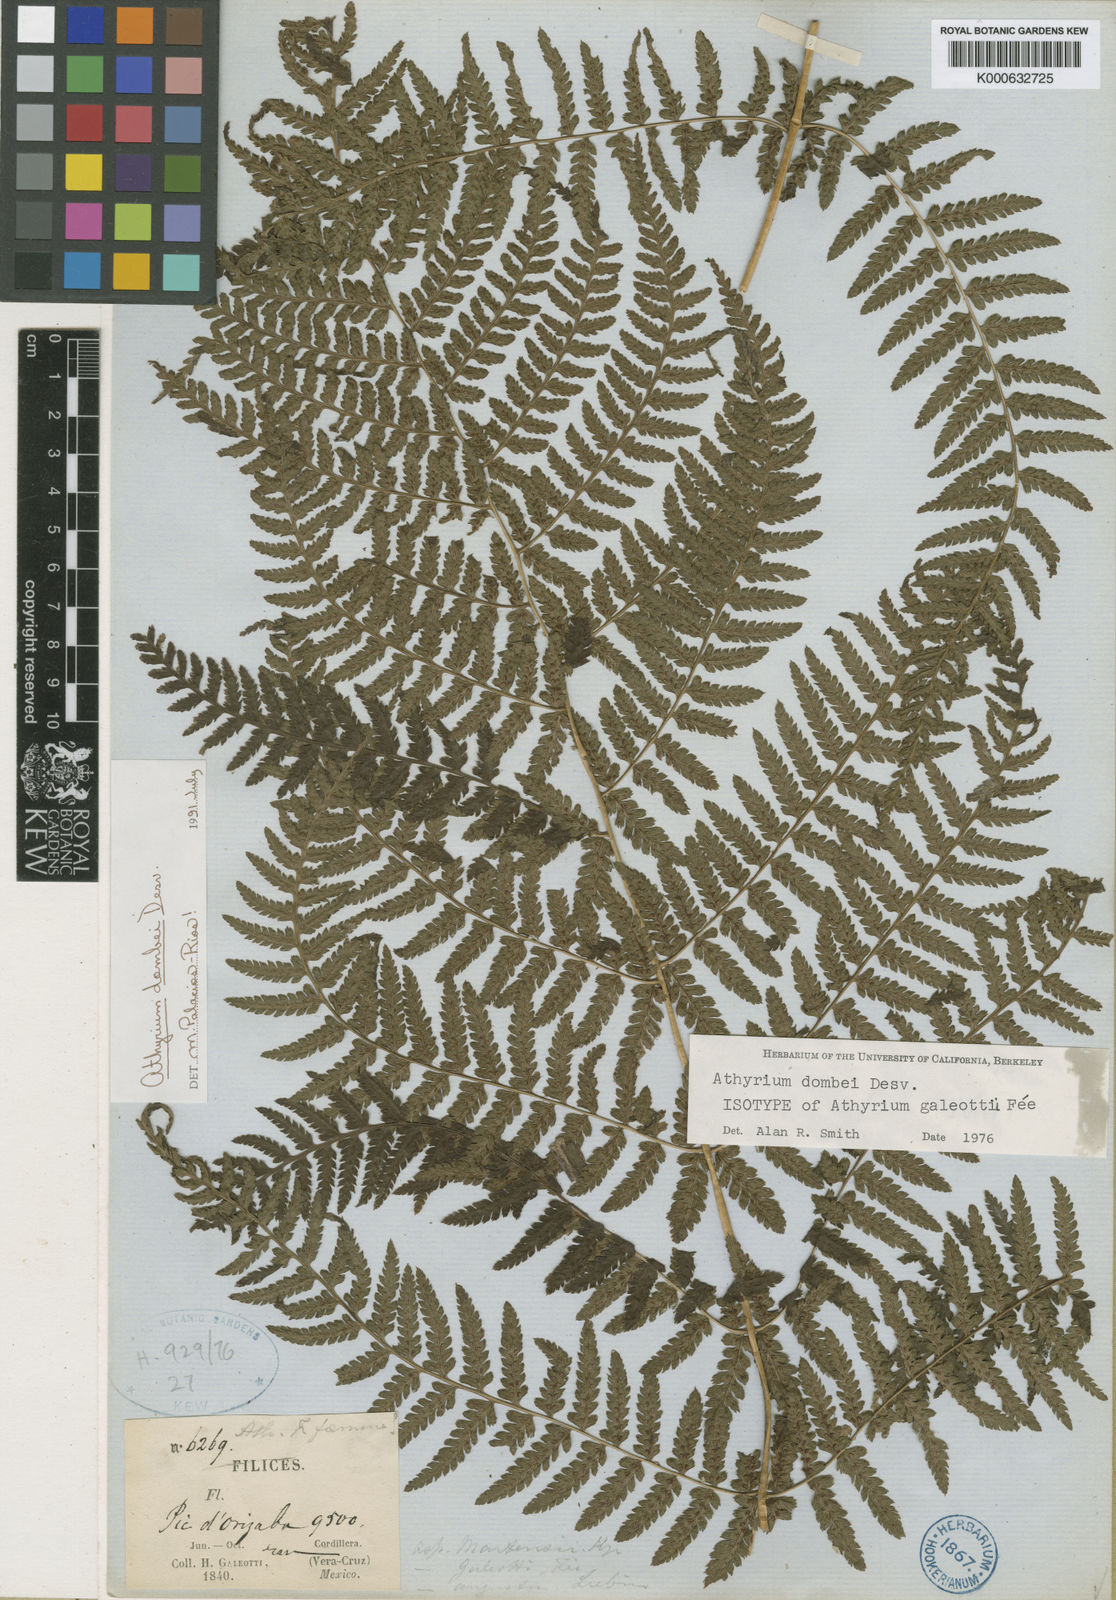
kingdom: Plantae
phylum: Tracheophyta
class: Polypodiopsida
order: Polypodiales
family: Athyriaceae
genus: Athyrium
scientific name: Athyrium
